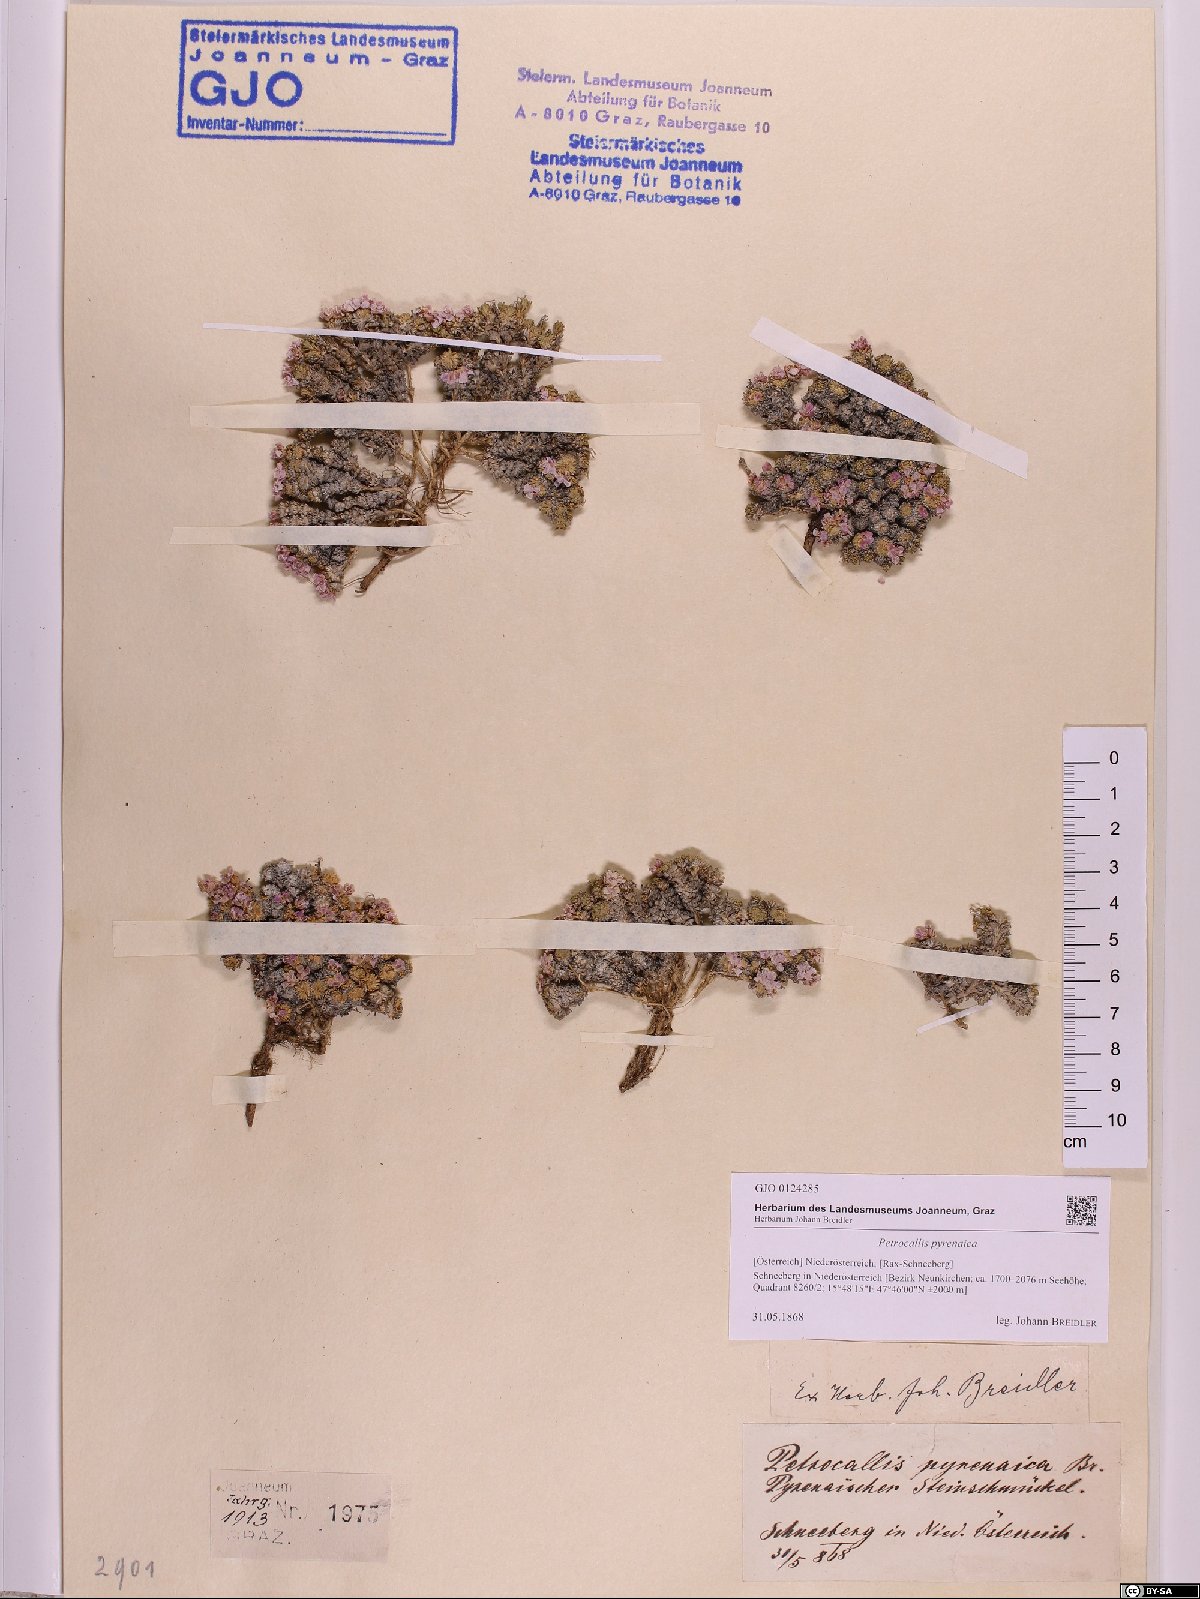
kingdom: Plantae
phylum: Tracheophyta
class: Magnoliopsida
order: Brassicales
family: Brassicaceae
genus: Petrocallis
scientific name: Petrocallis pyrenaica
